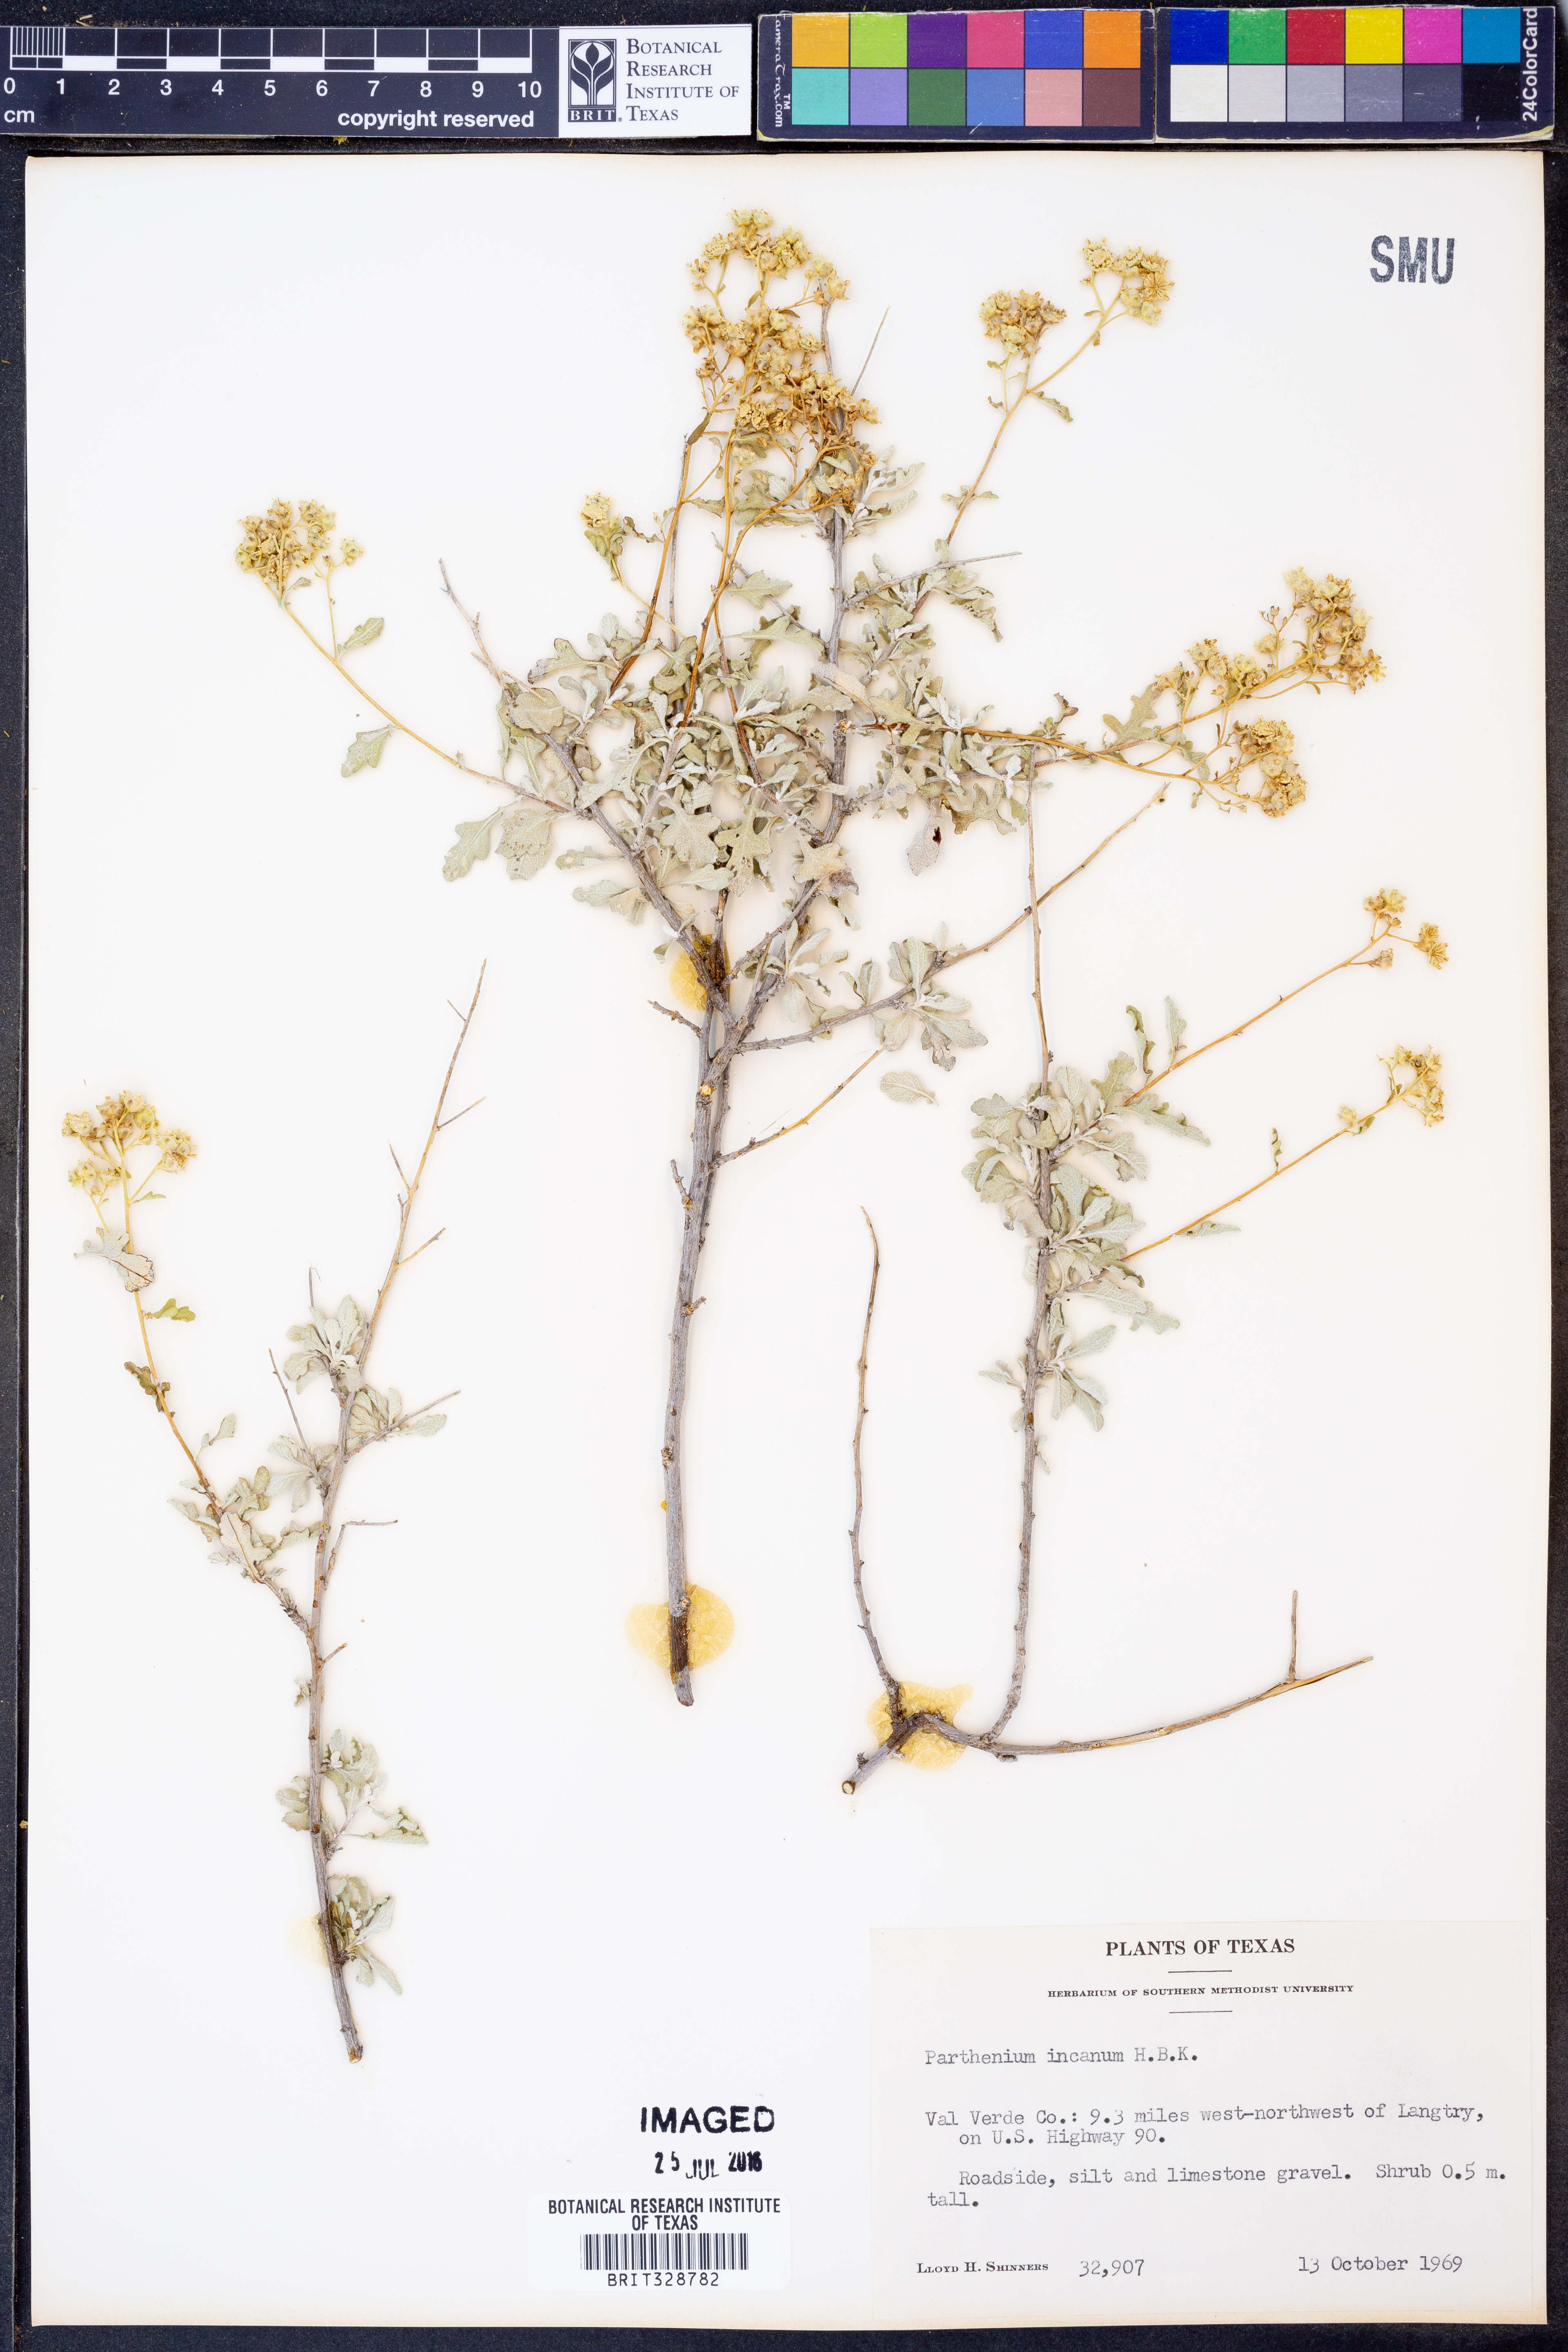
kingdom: Plantae
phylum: Tracheophyta
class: Magnoliopsida
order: Asterales
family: Asteraceae
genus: Parthenium
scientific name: Parthenium incanum
